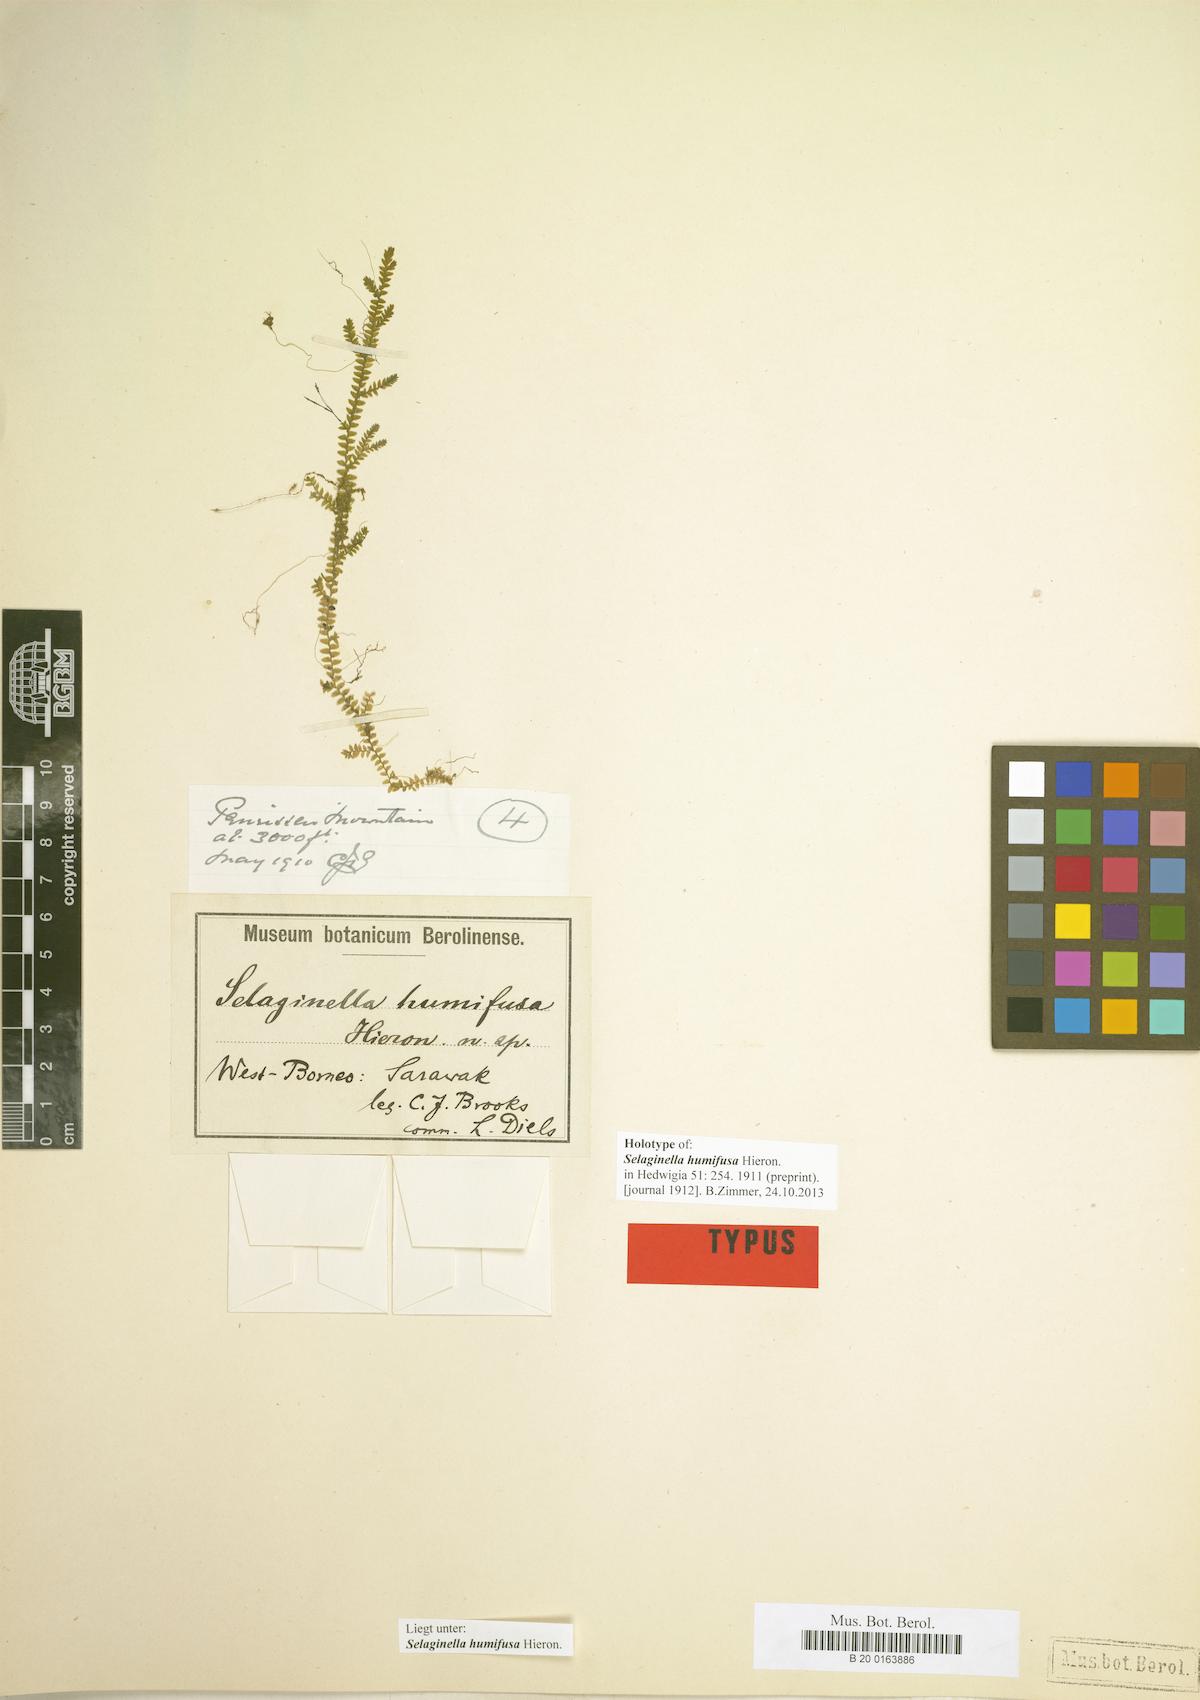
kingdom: Plantae
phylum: Tracheophyta
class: Lycopodiopsida
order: Selaginellales
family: Selaginellaceae
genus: Selaginella
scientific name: Selaginella acanthonota
